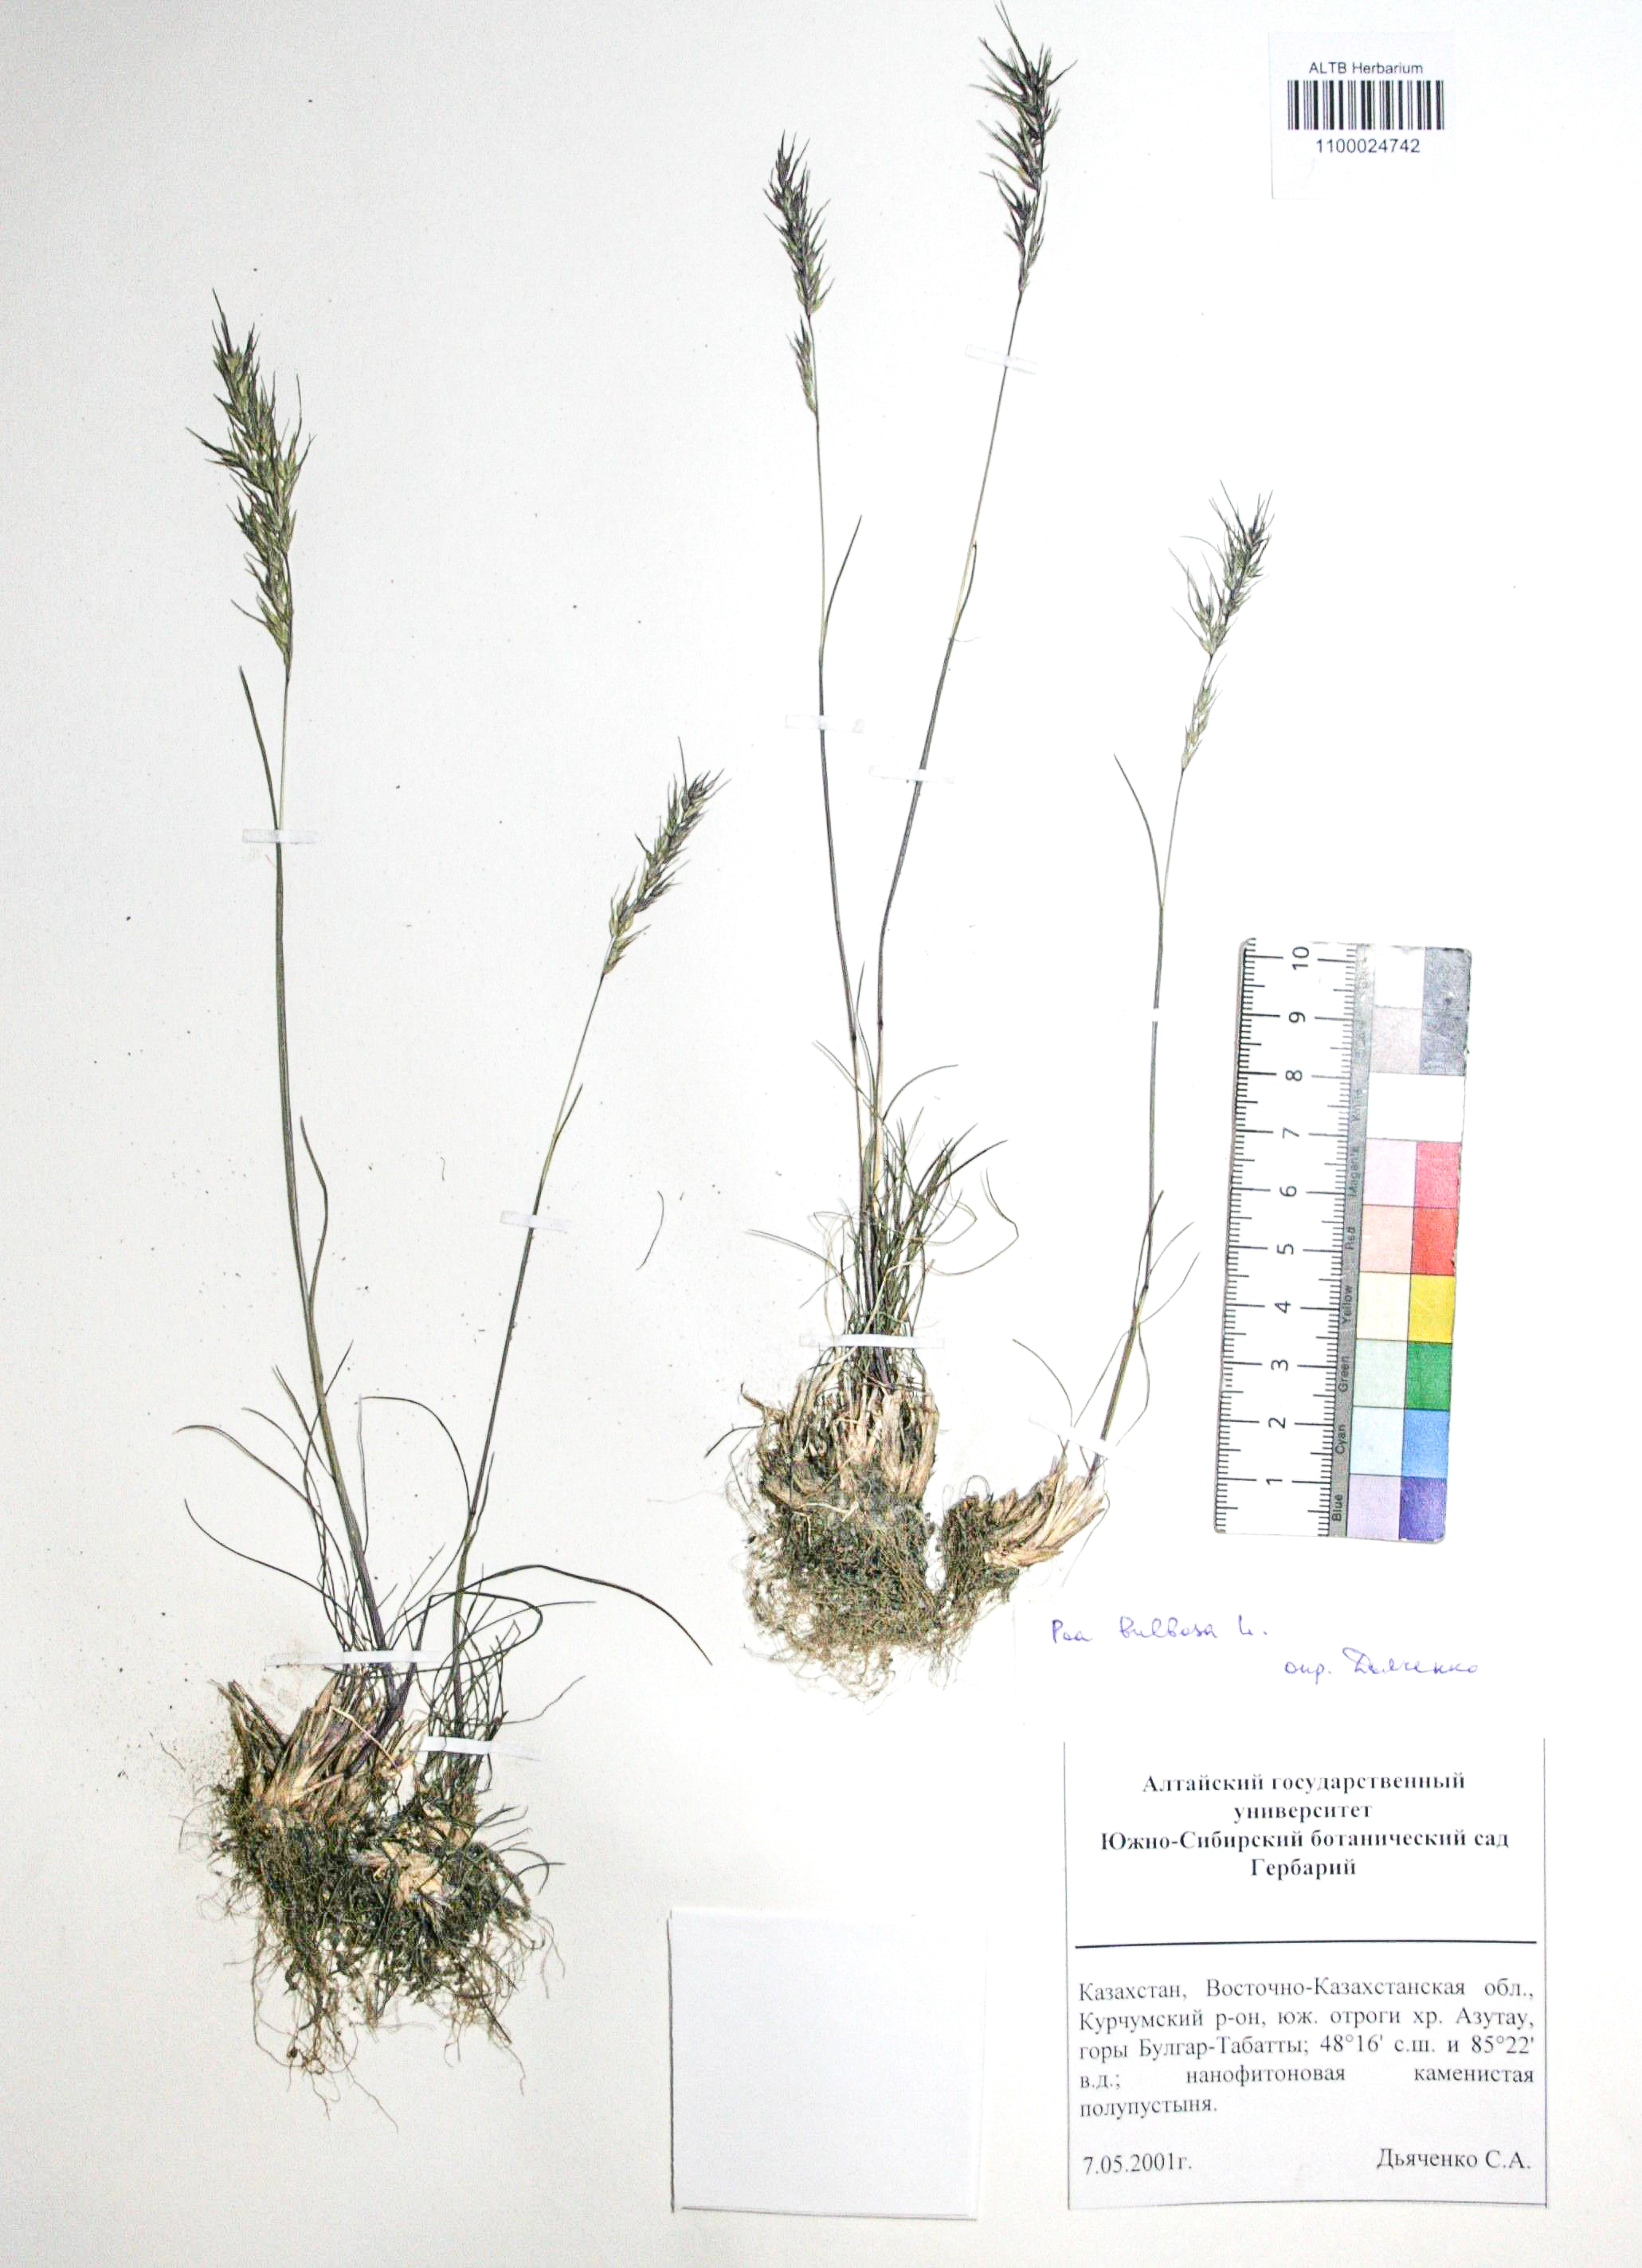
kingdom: Plantae
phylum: Tracheophyta
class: Liliopsida
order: Poales
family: Poaceae
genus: Poa
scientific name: Poa bulbosa
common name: Bulbous bluegrass
